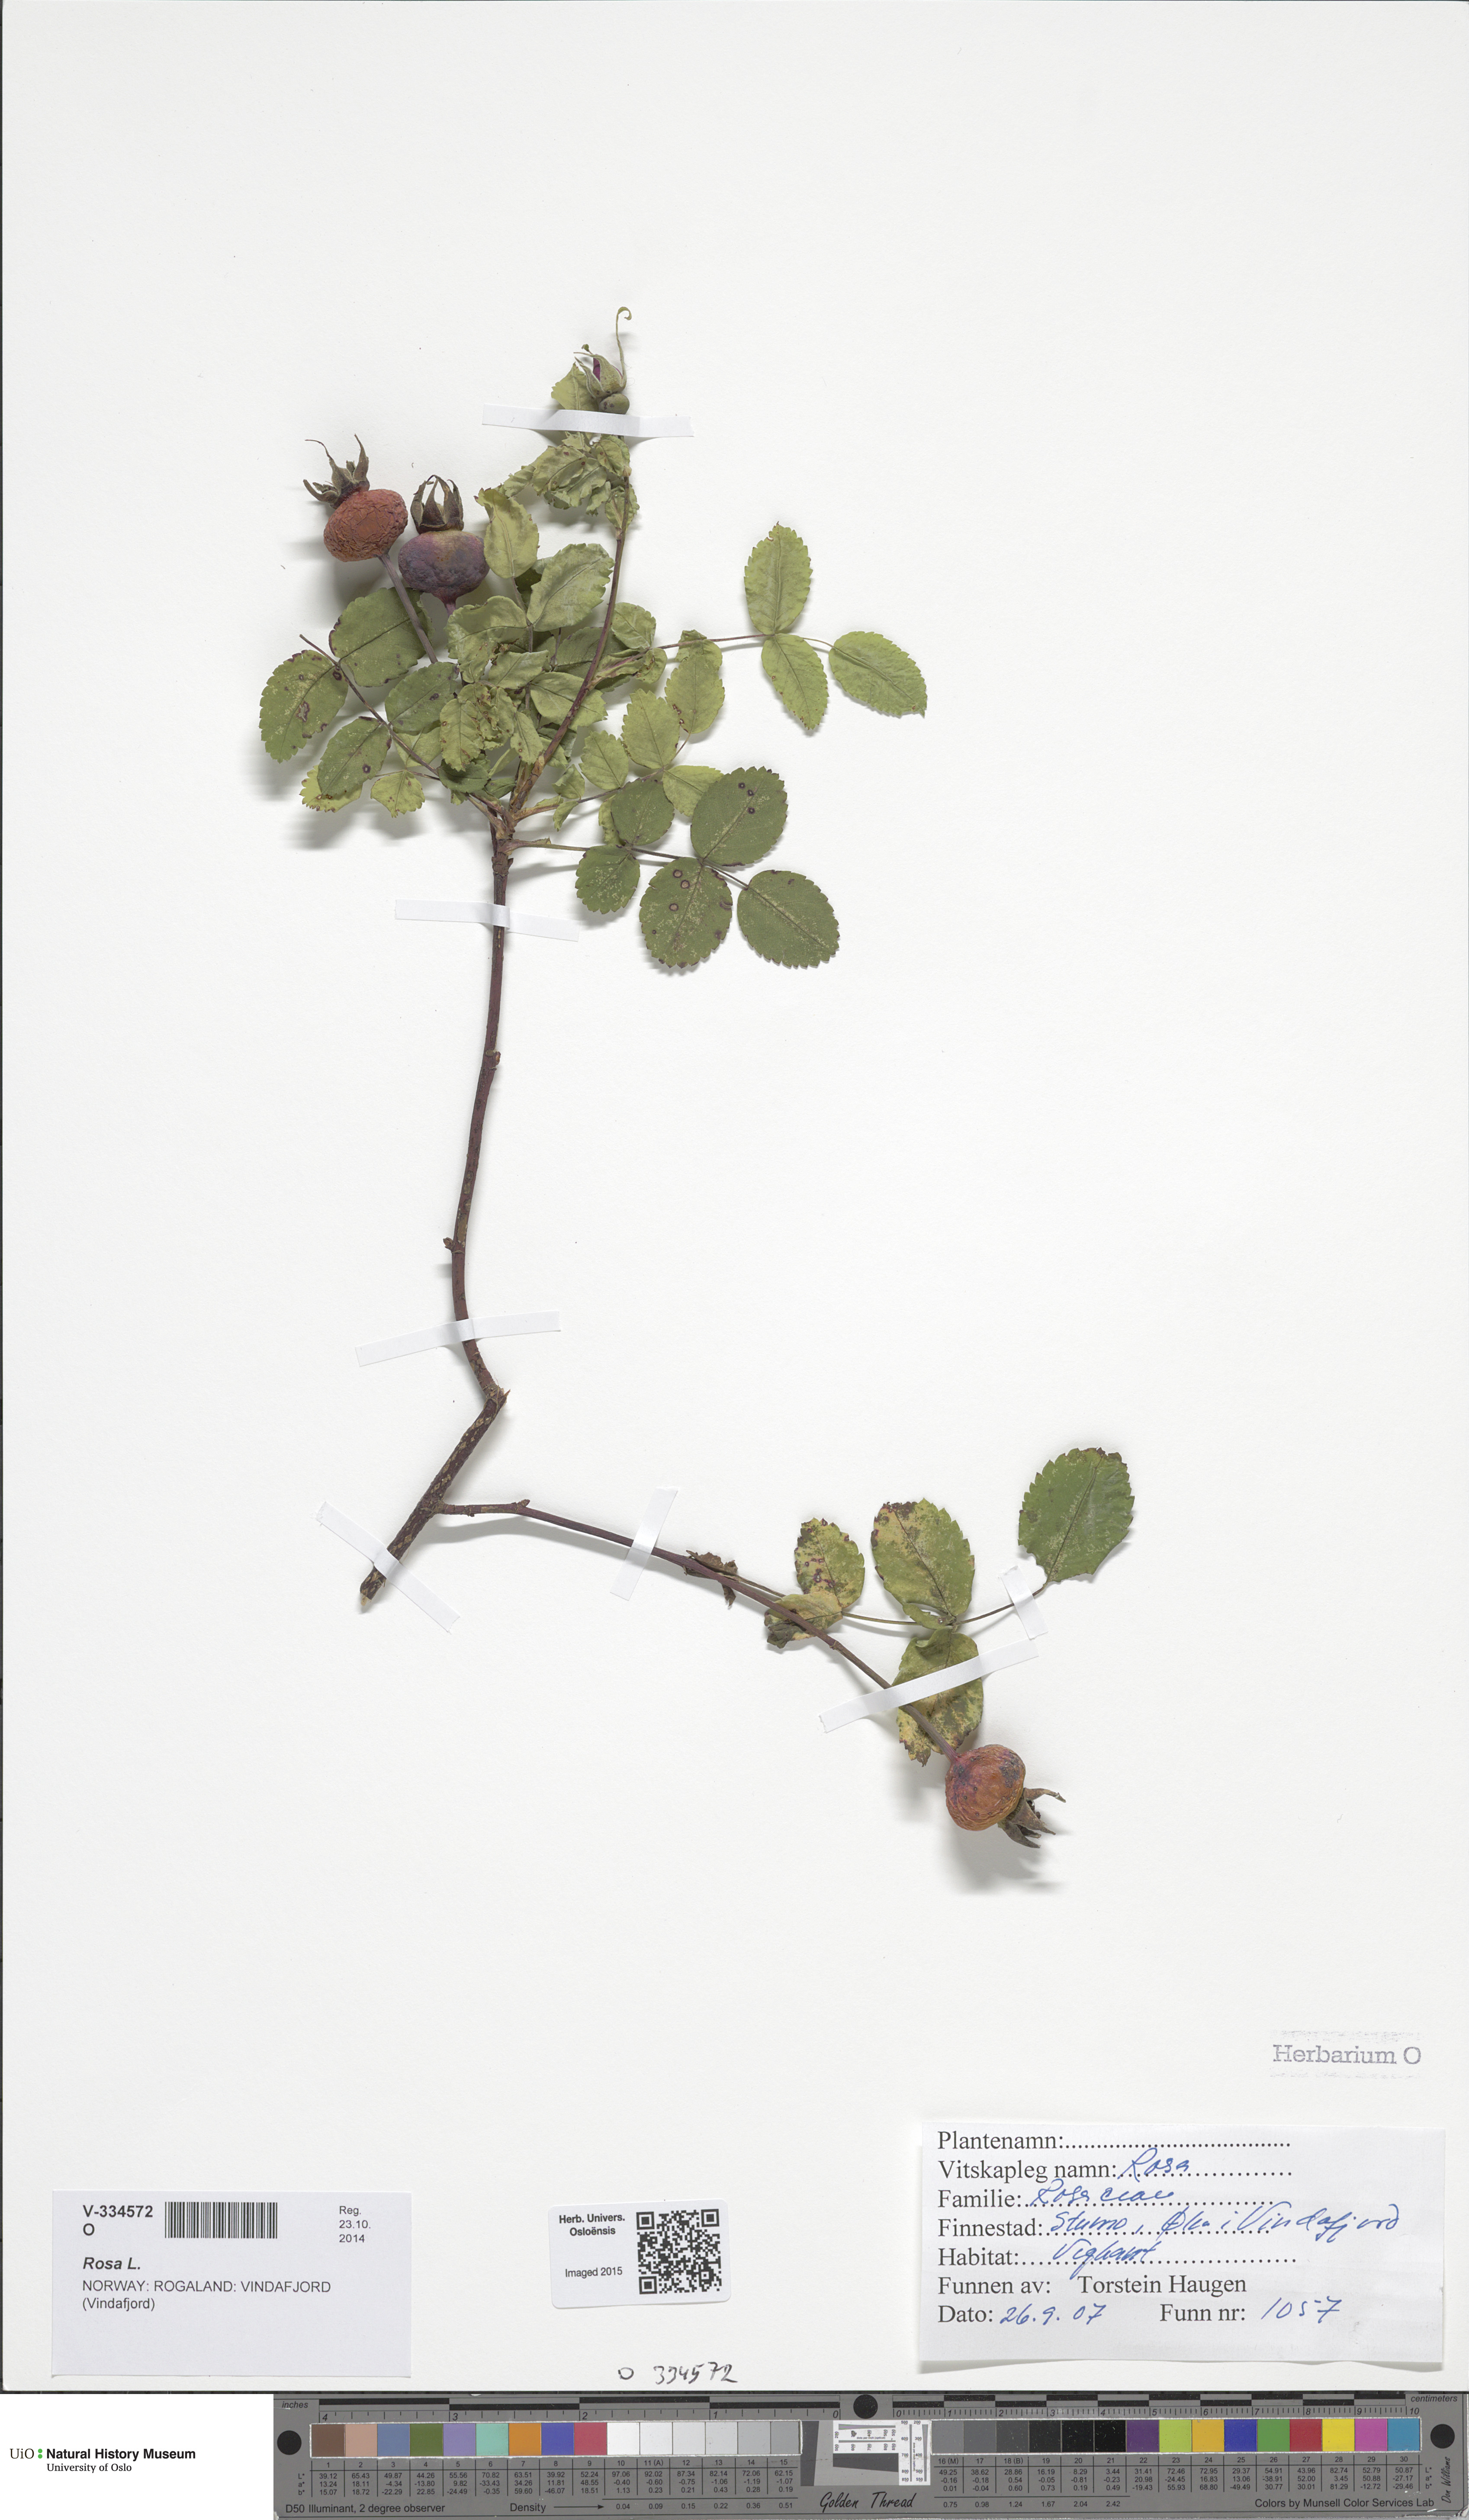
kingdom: Plantae
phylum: Tracheophyta
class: Magnoliopsida
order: Rosales
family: Rosaceae
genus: Rosa
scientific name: Rosa
